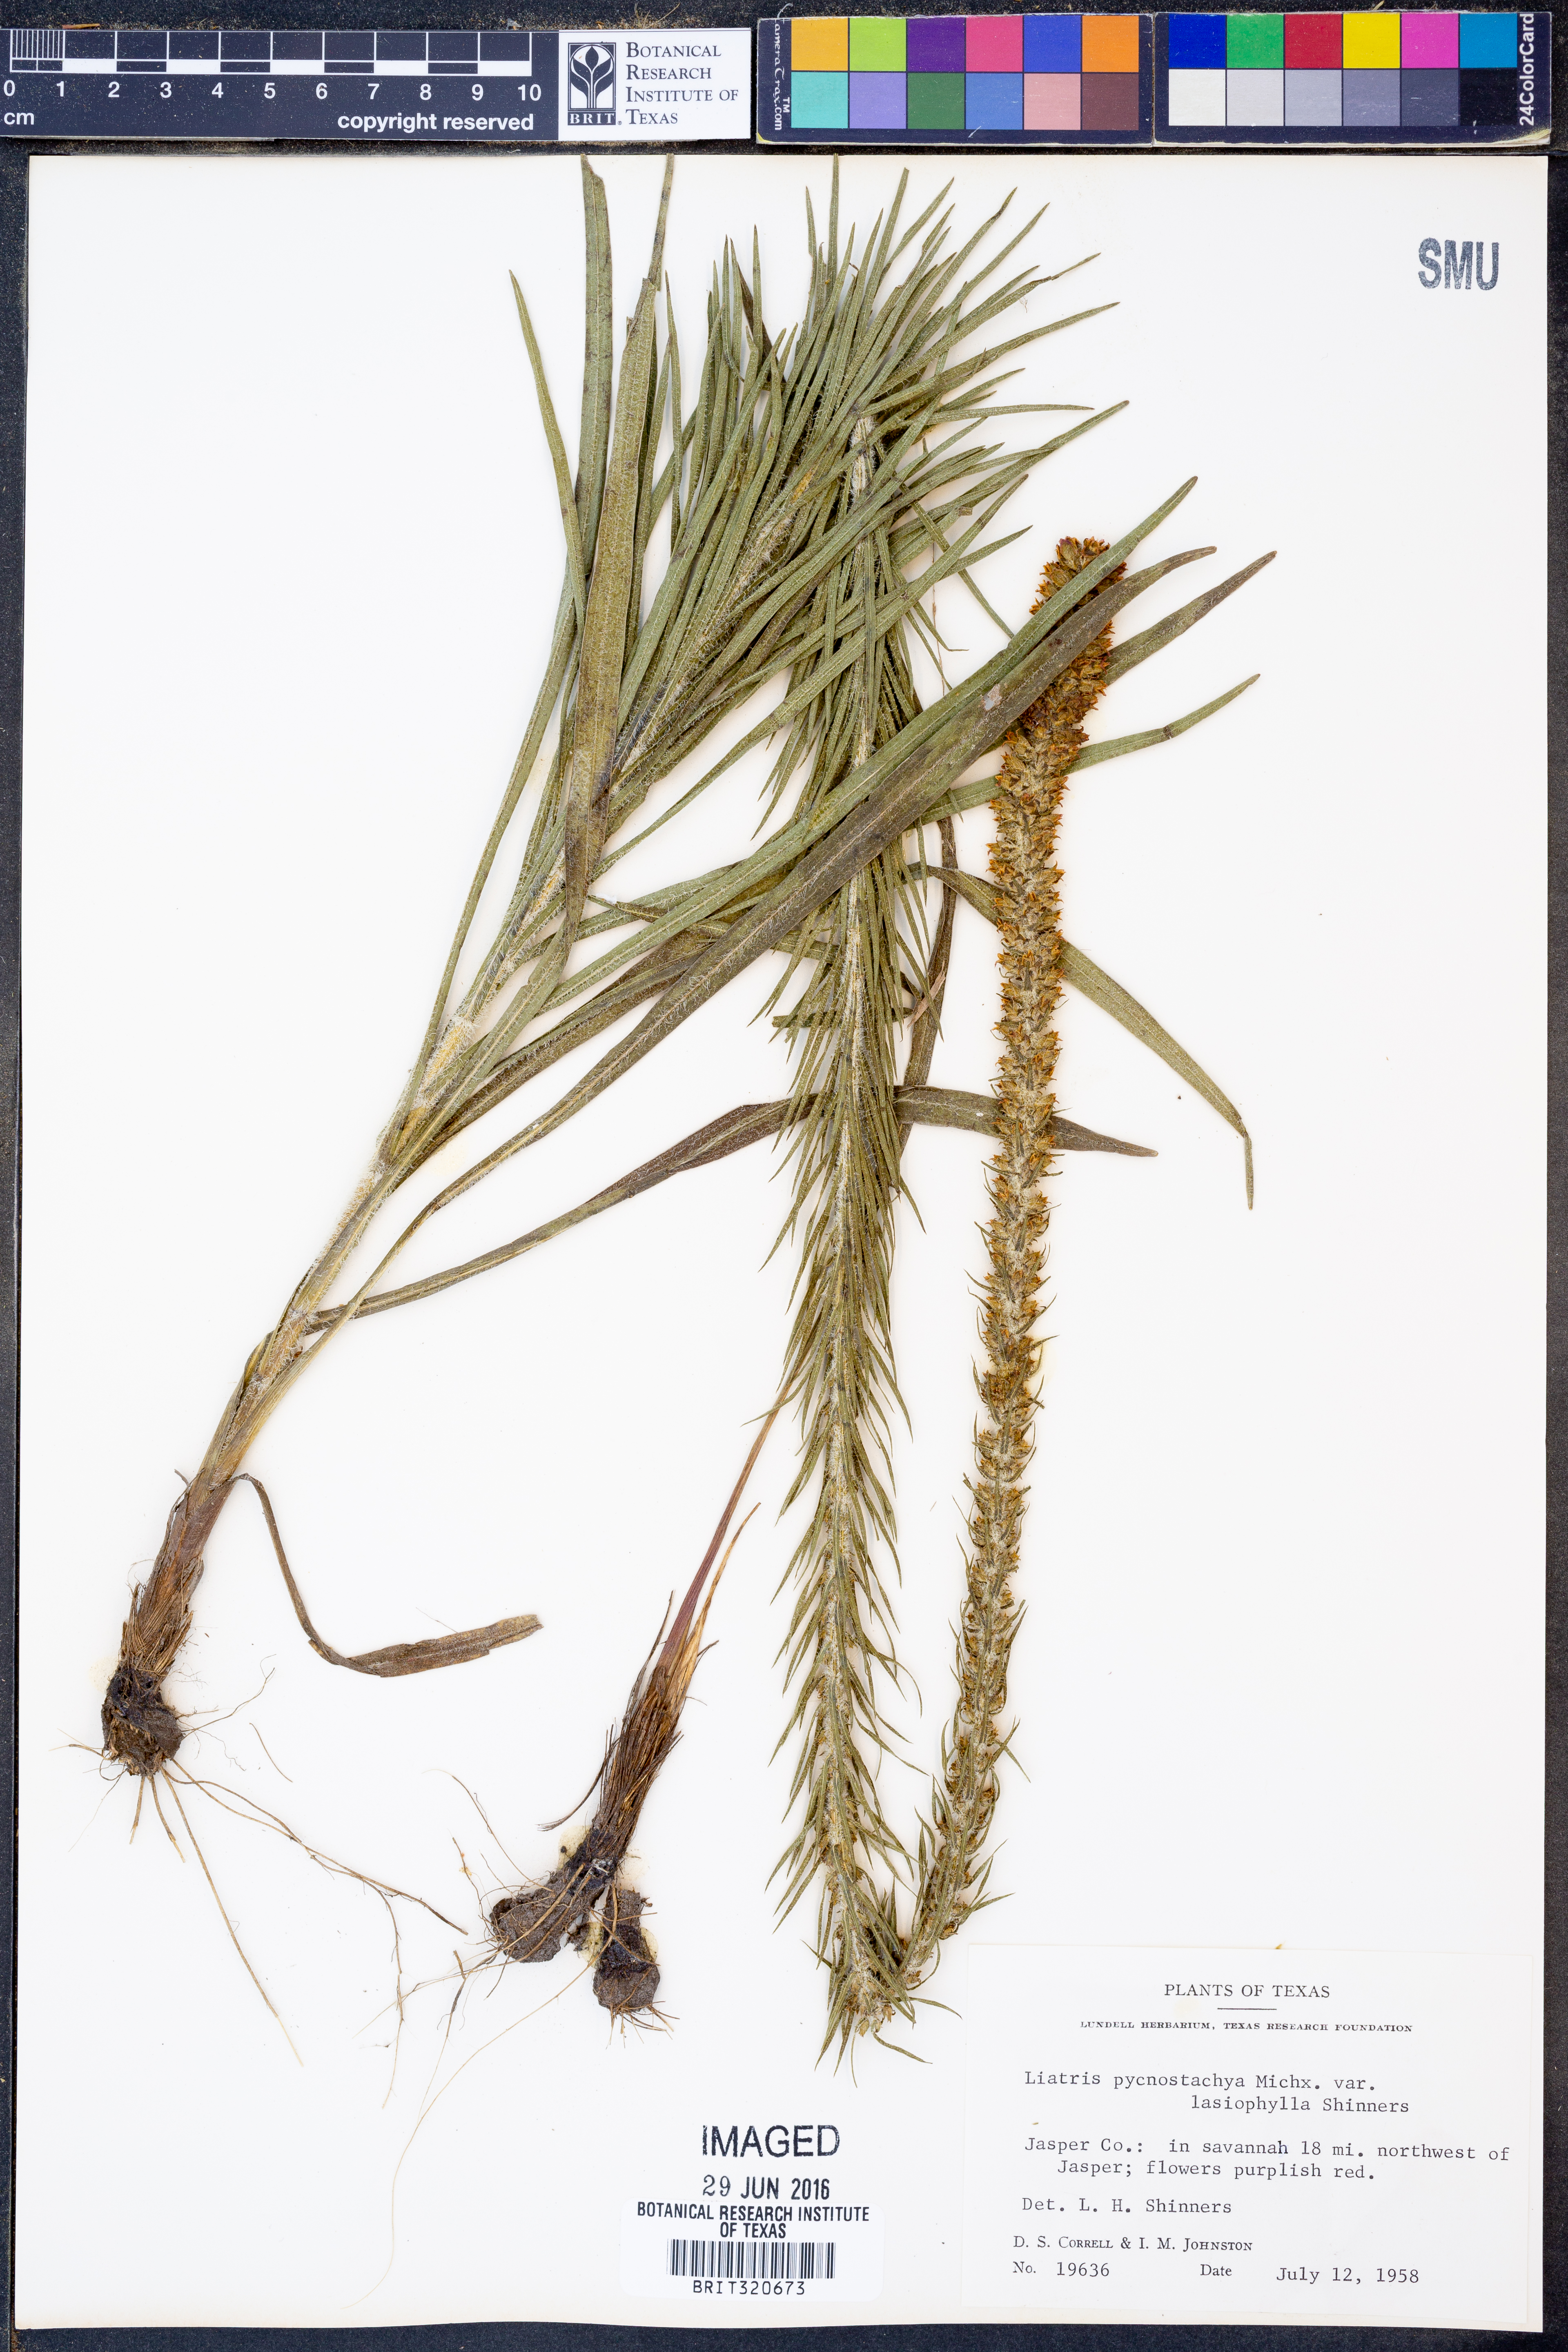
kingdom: Plantae
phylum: Tracheophyta
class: Magnoliopsida
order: Asterales
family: Asteraceae
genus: Liatris
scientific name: Liatris pycnostachya
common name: Cattail gayfeather
